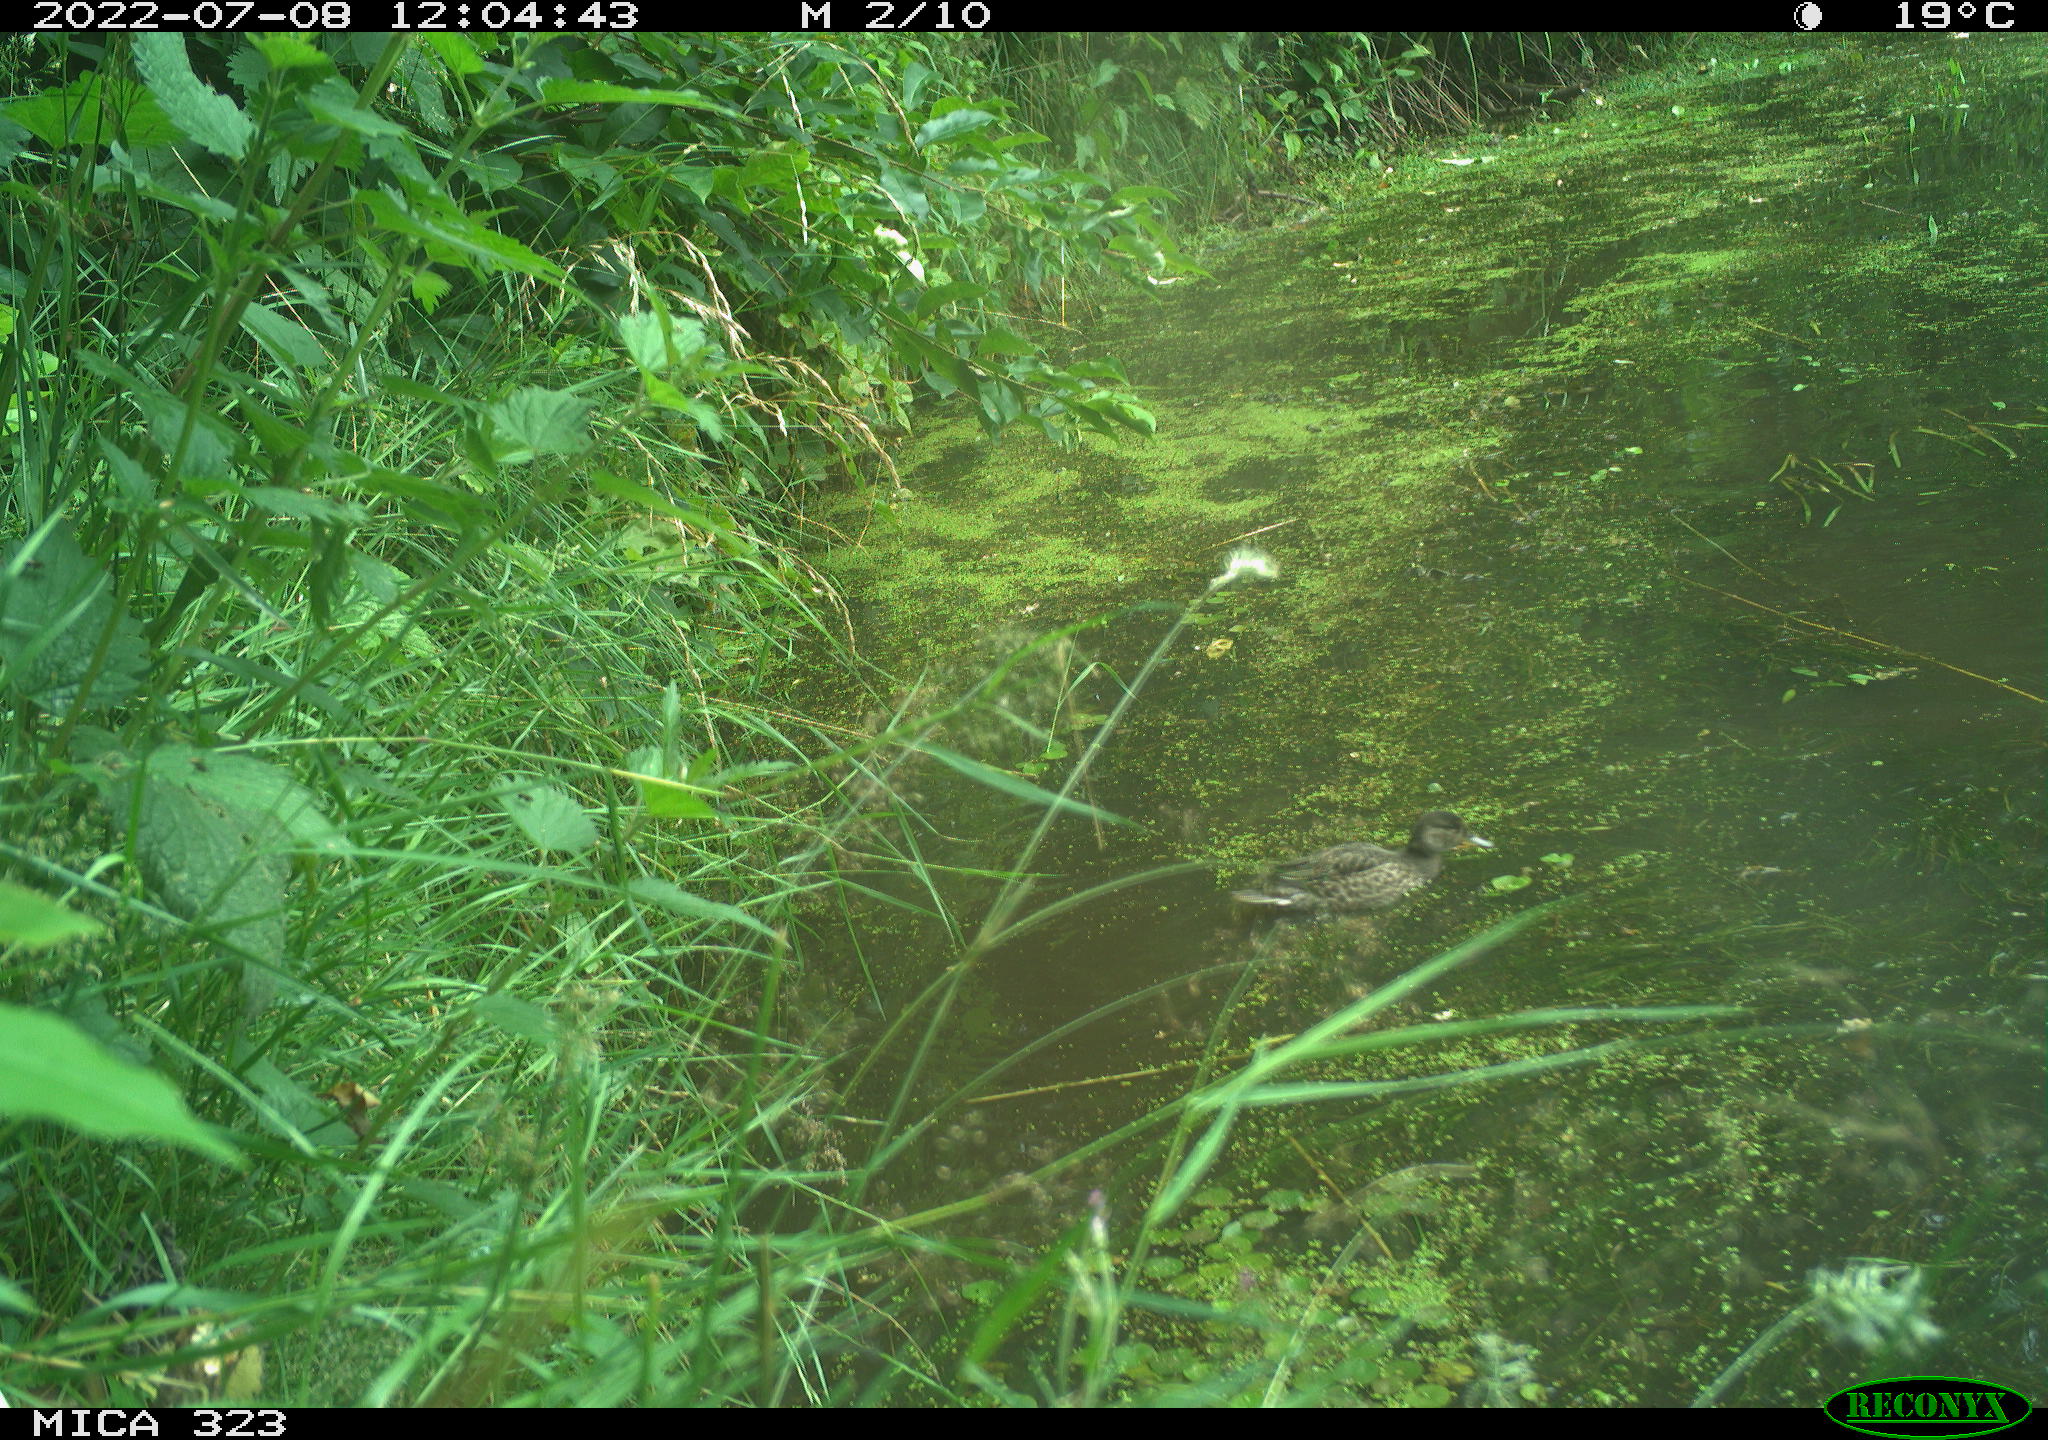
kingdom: Animalia
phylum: Chordata
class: Aves
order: Anseriformes
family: Anatidae
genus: Anas
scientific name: Anas platyrhynchos
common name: Mallard
